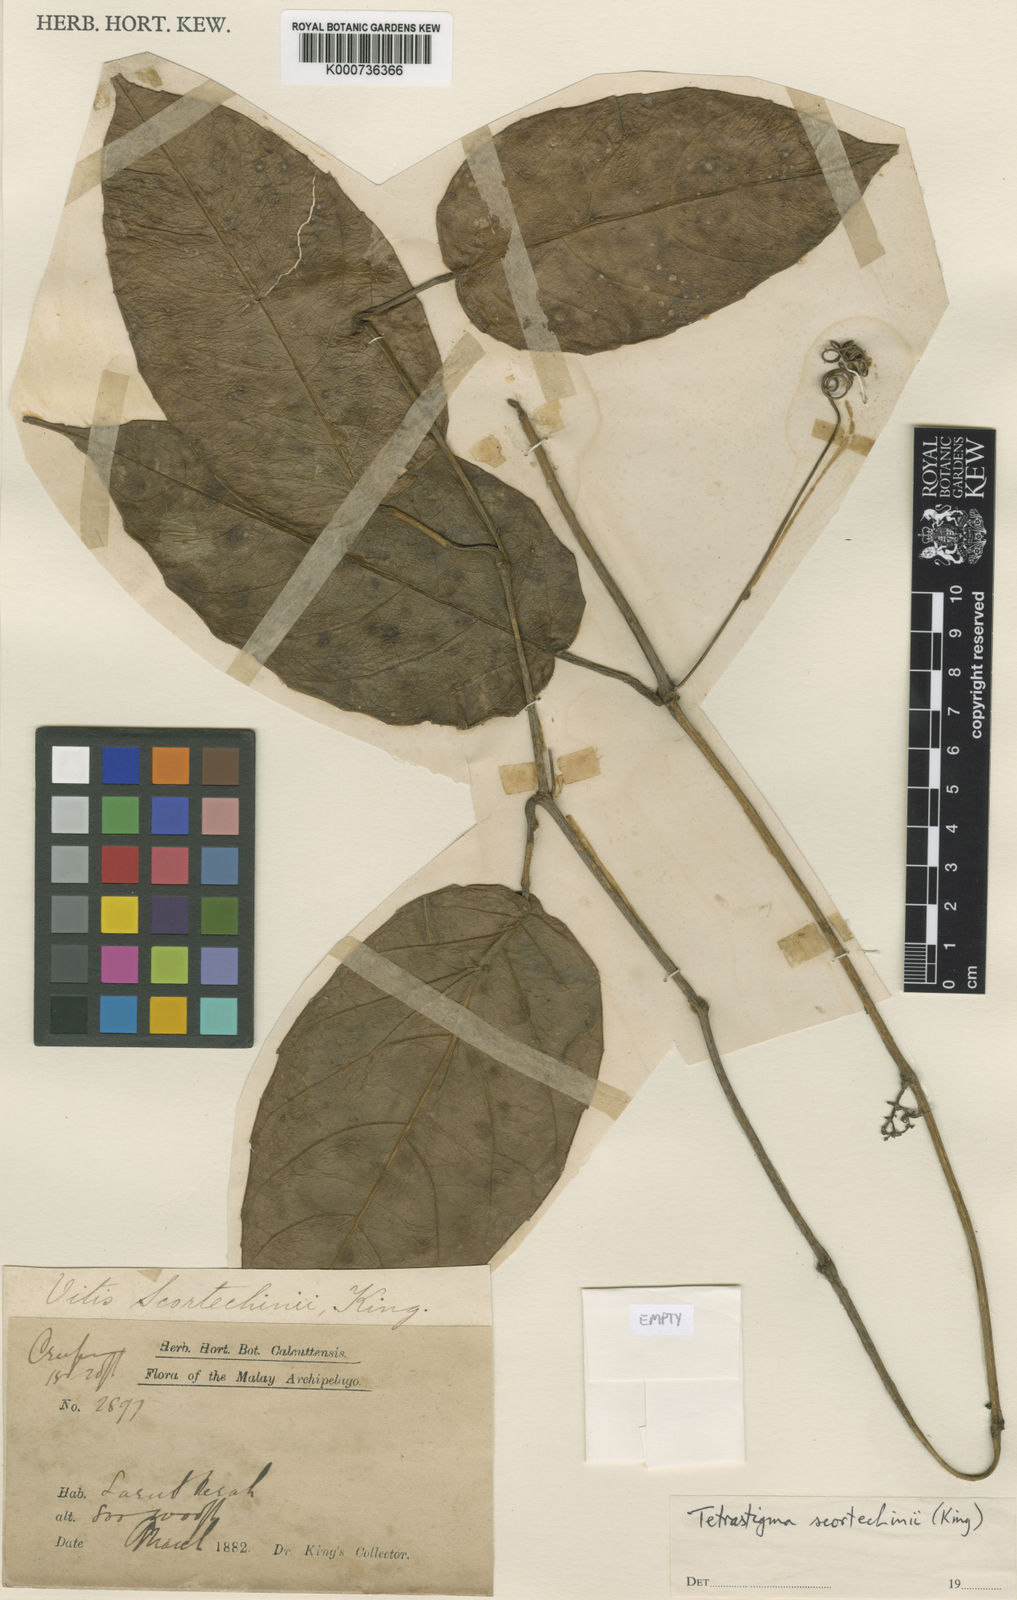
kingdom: Plantae
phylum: Tracheophyta
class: Magnoliopsida
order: Vitales
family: Vitaceae
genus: Tetrastigma
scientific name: Tetrastigma scortechinii
